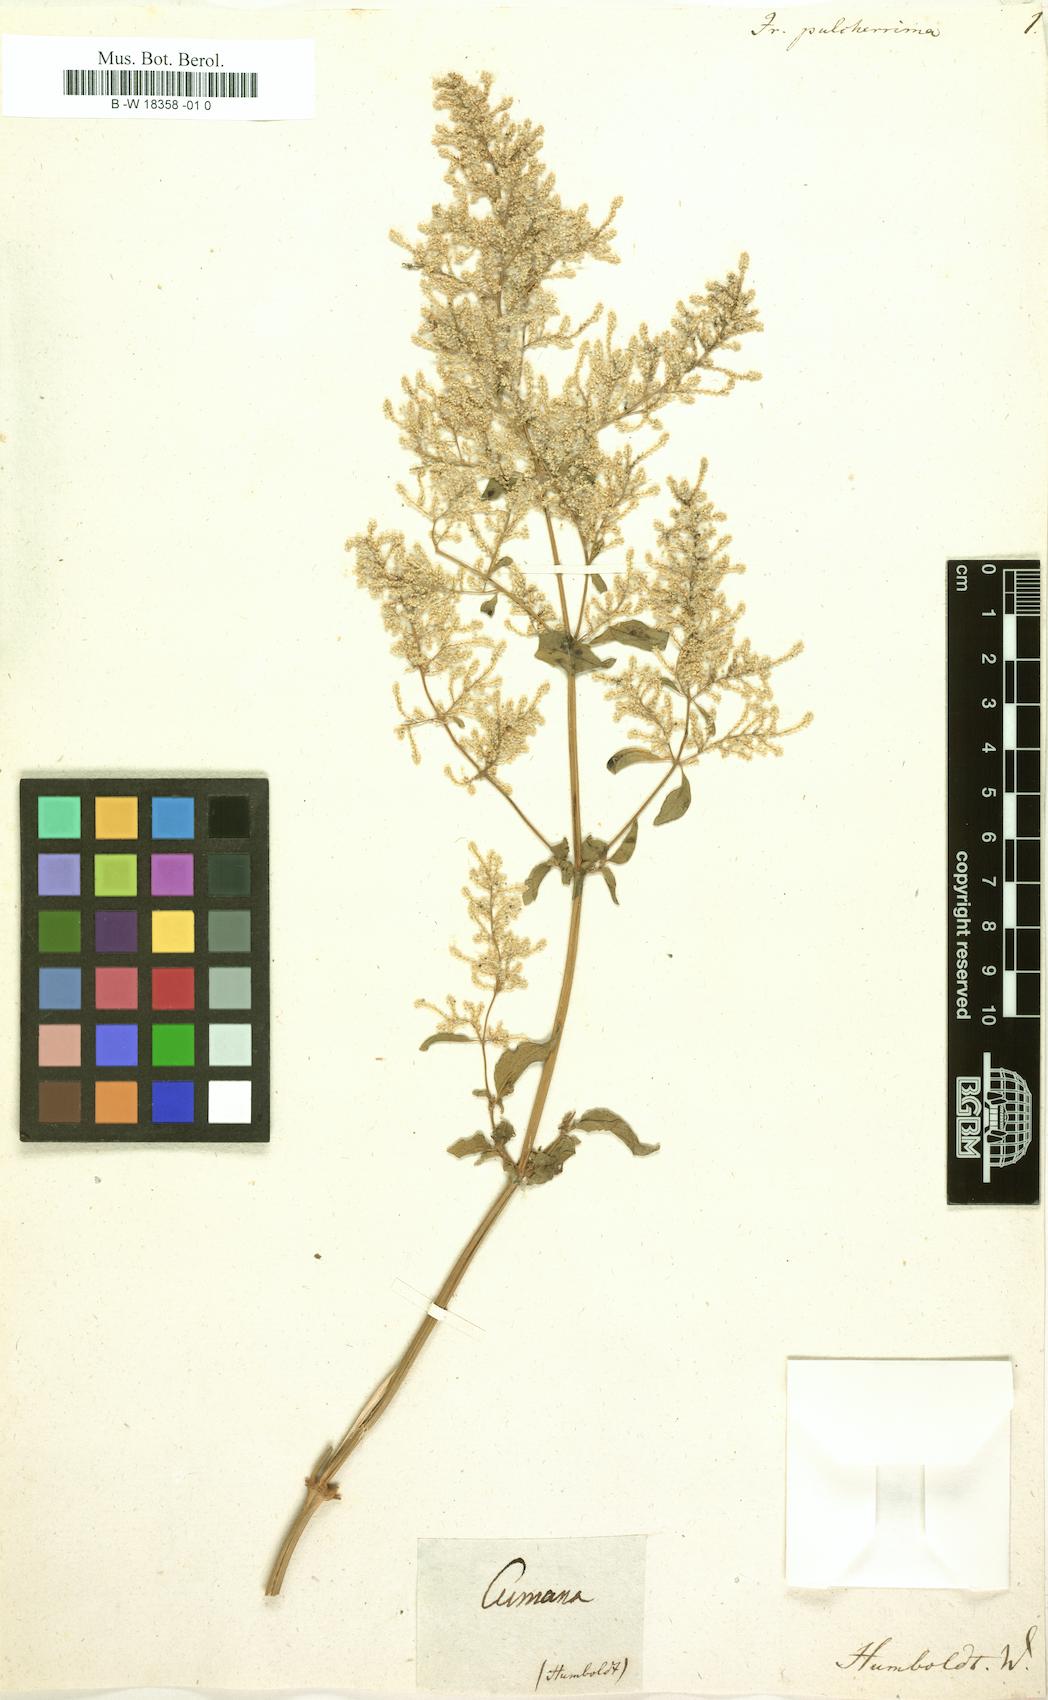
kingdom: Plantae
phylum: Tracheophyta
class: Magnoliopsida
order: Caryophyllales
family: Amaranthaceae
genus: Iresine
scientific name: Iresine
